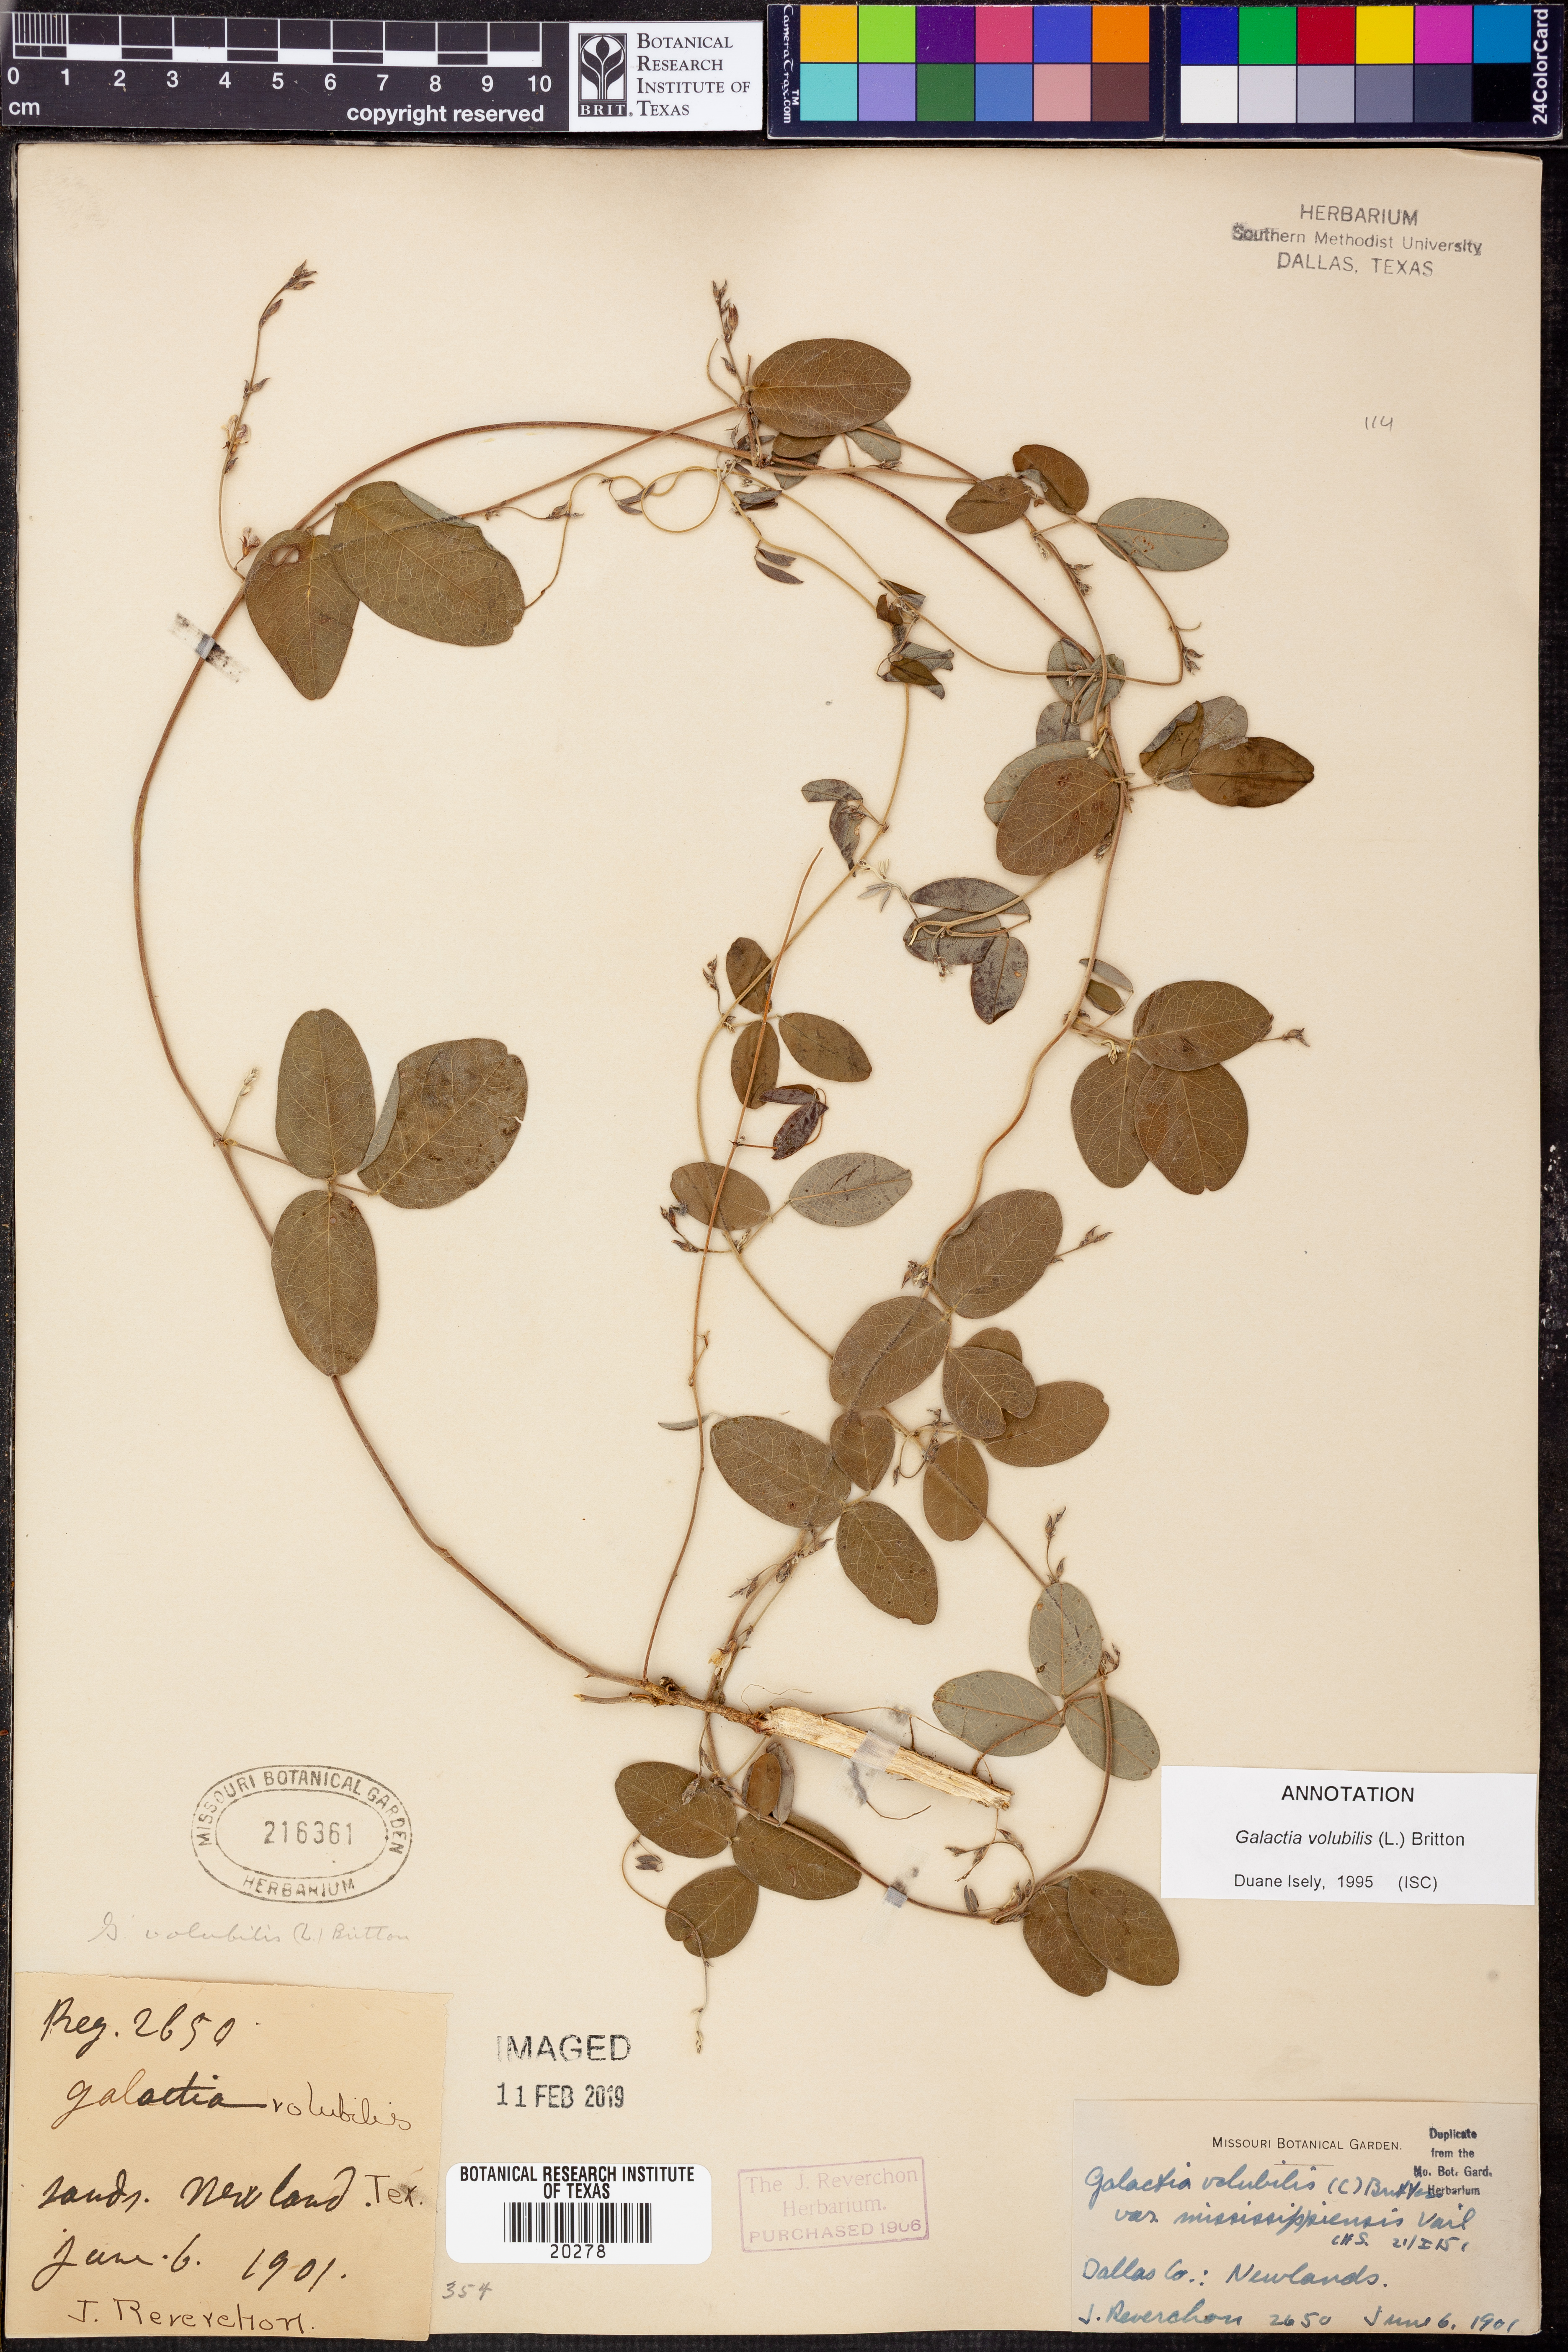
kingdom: Plantae
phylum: Tracheophyta
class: Magnoliopsida
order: Fabales
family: Fabaceae
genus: Galactia
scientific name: Galactia volubilis
